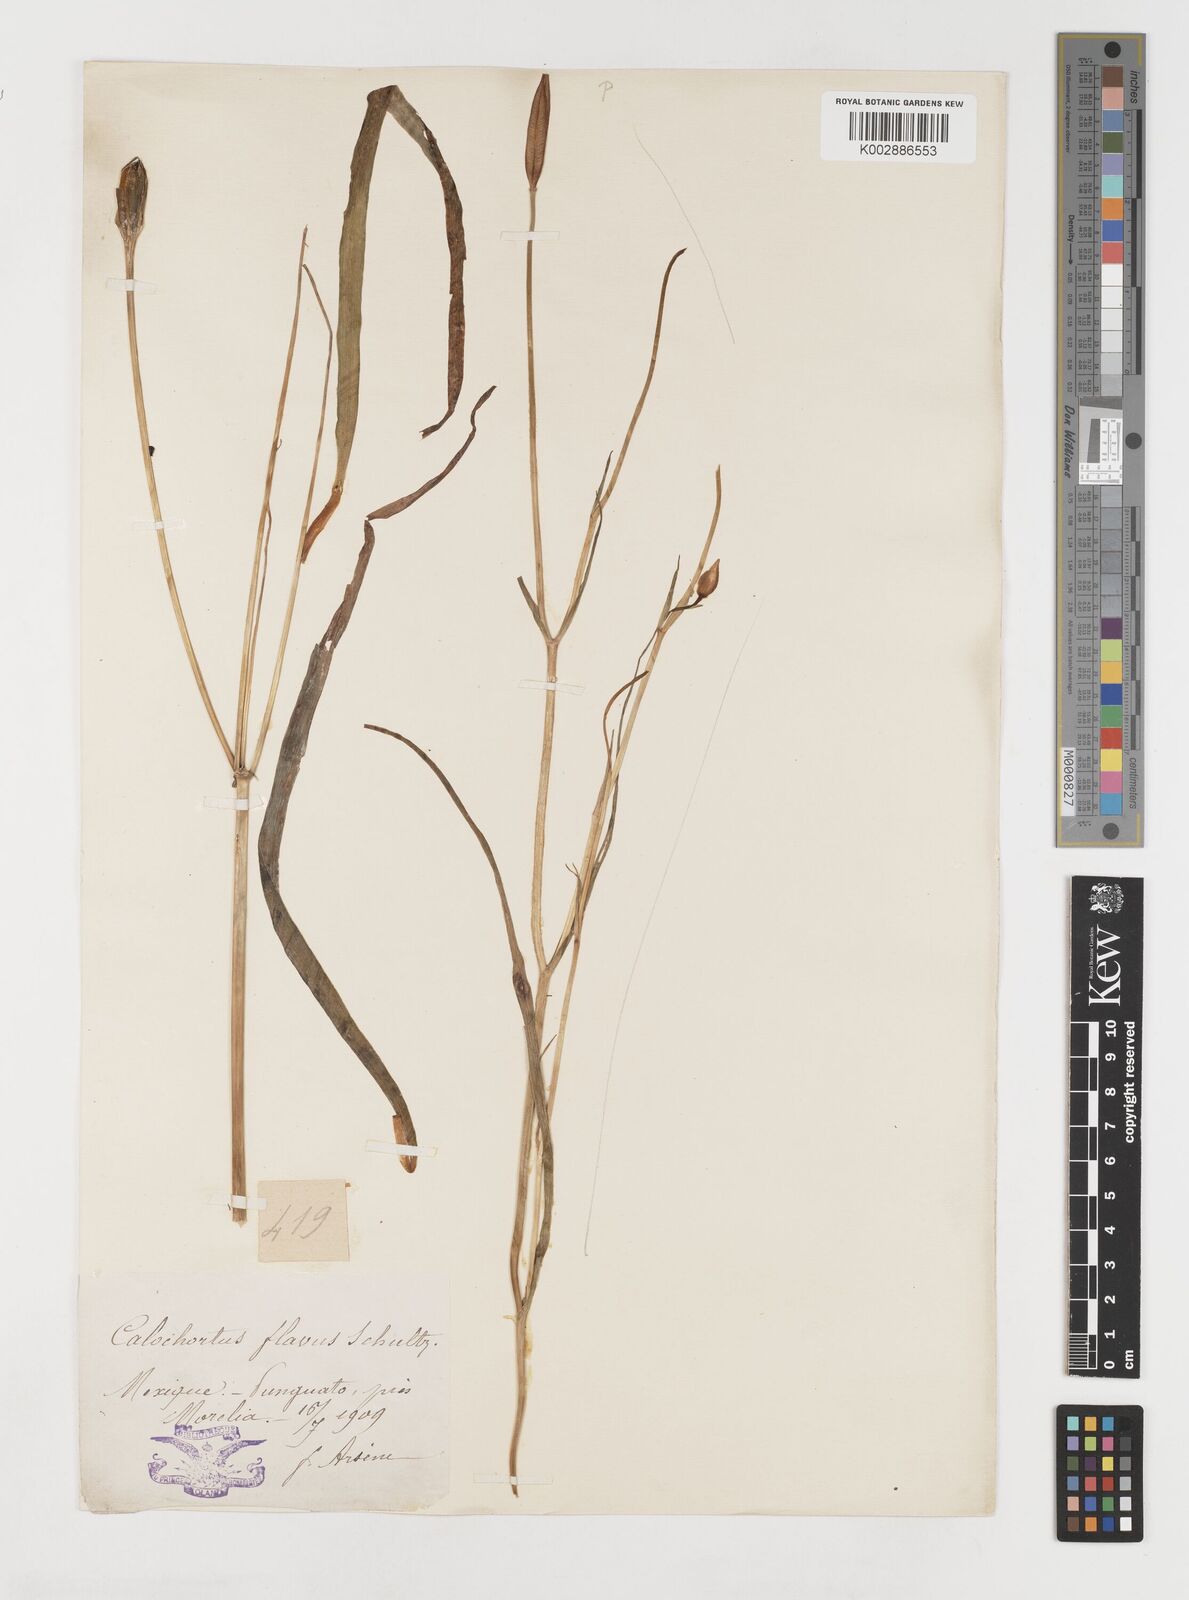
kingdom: Plantae
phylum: Tracheophyta
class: Liliopsida
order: Liliales
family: Liliaceae
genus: Calochortus
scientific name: Calochortus barbatus
